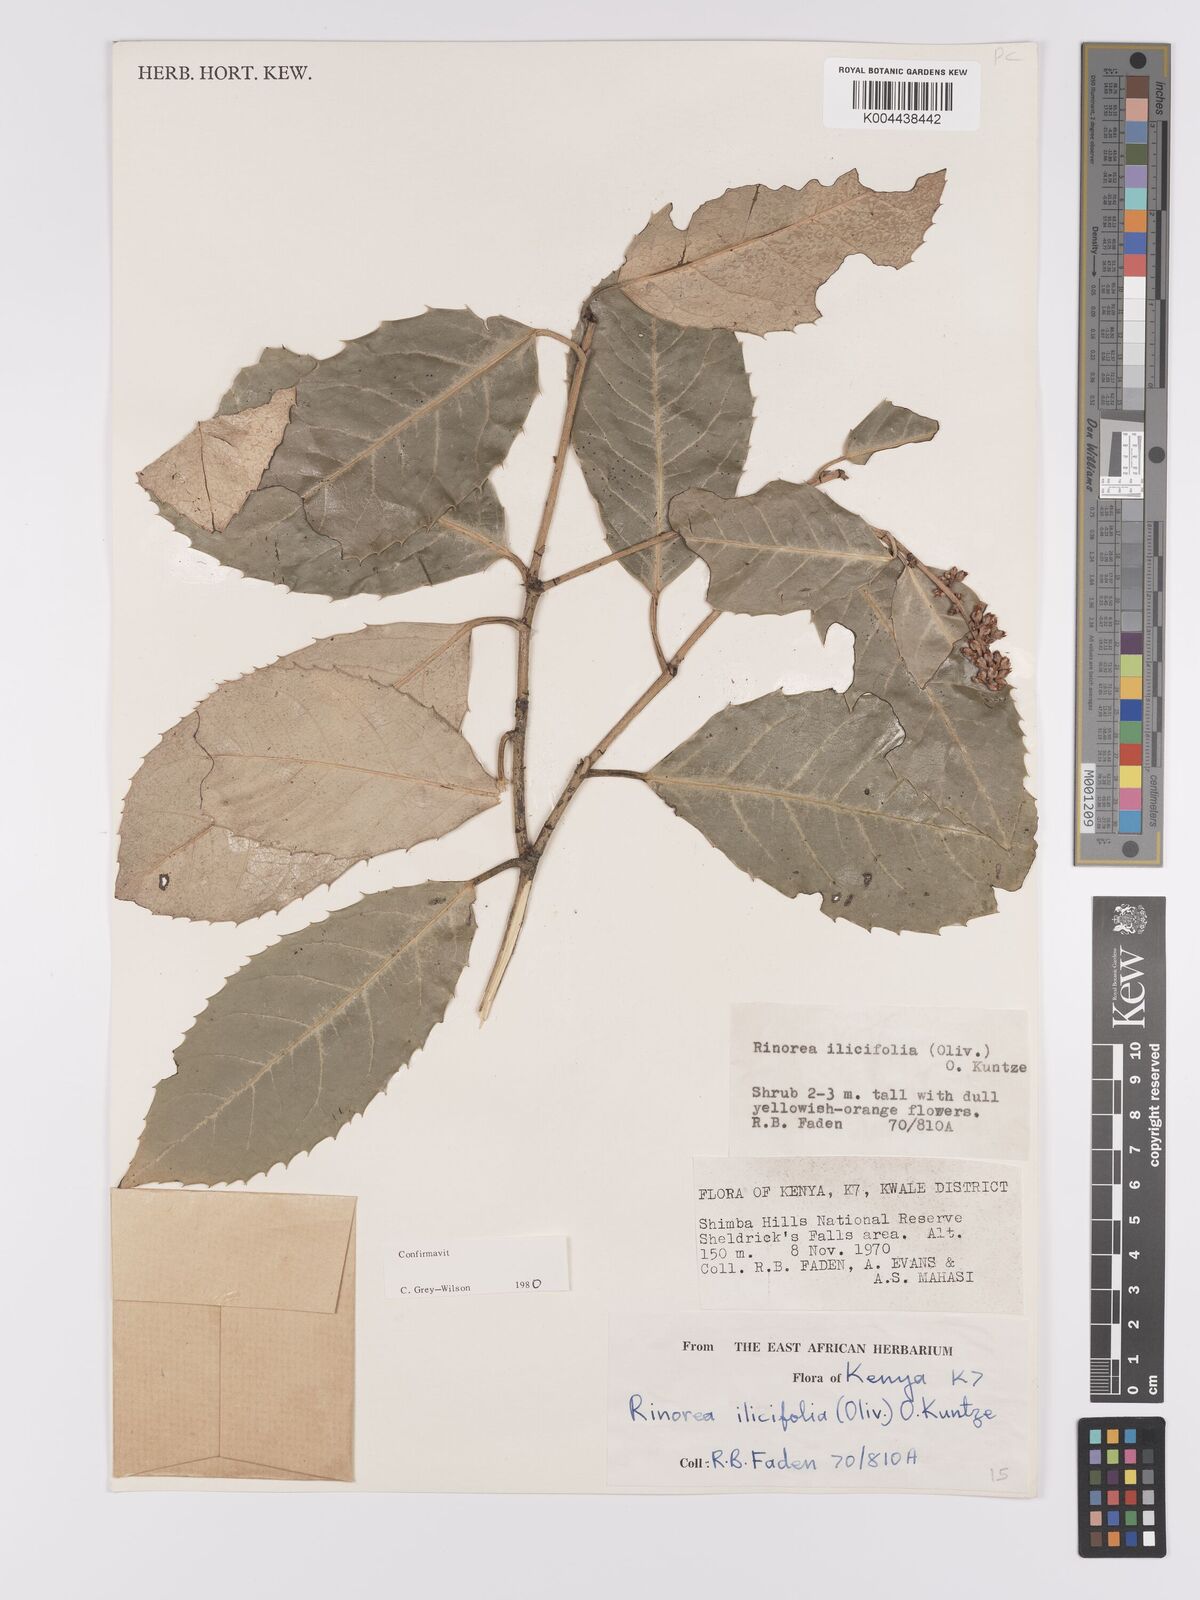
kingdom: Plantae
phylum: Tracheophyta
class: Magnoliopsida
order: Malpighiales
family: Violaceae
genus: Rinorea
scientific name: Rinorea ilicifolia
